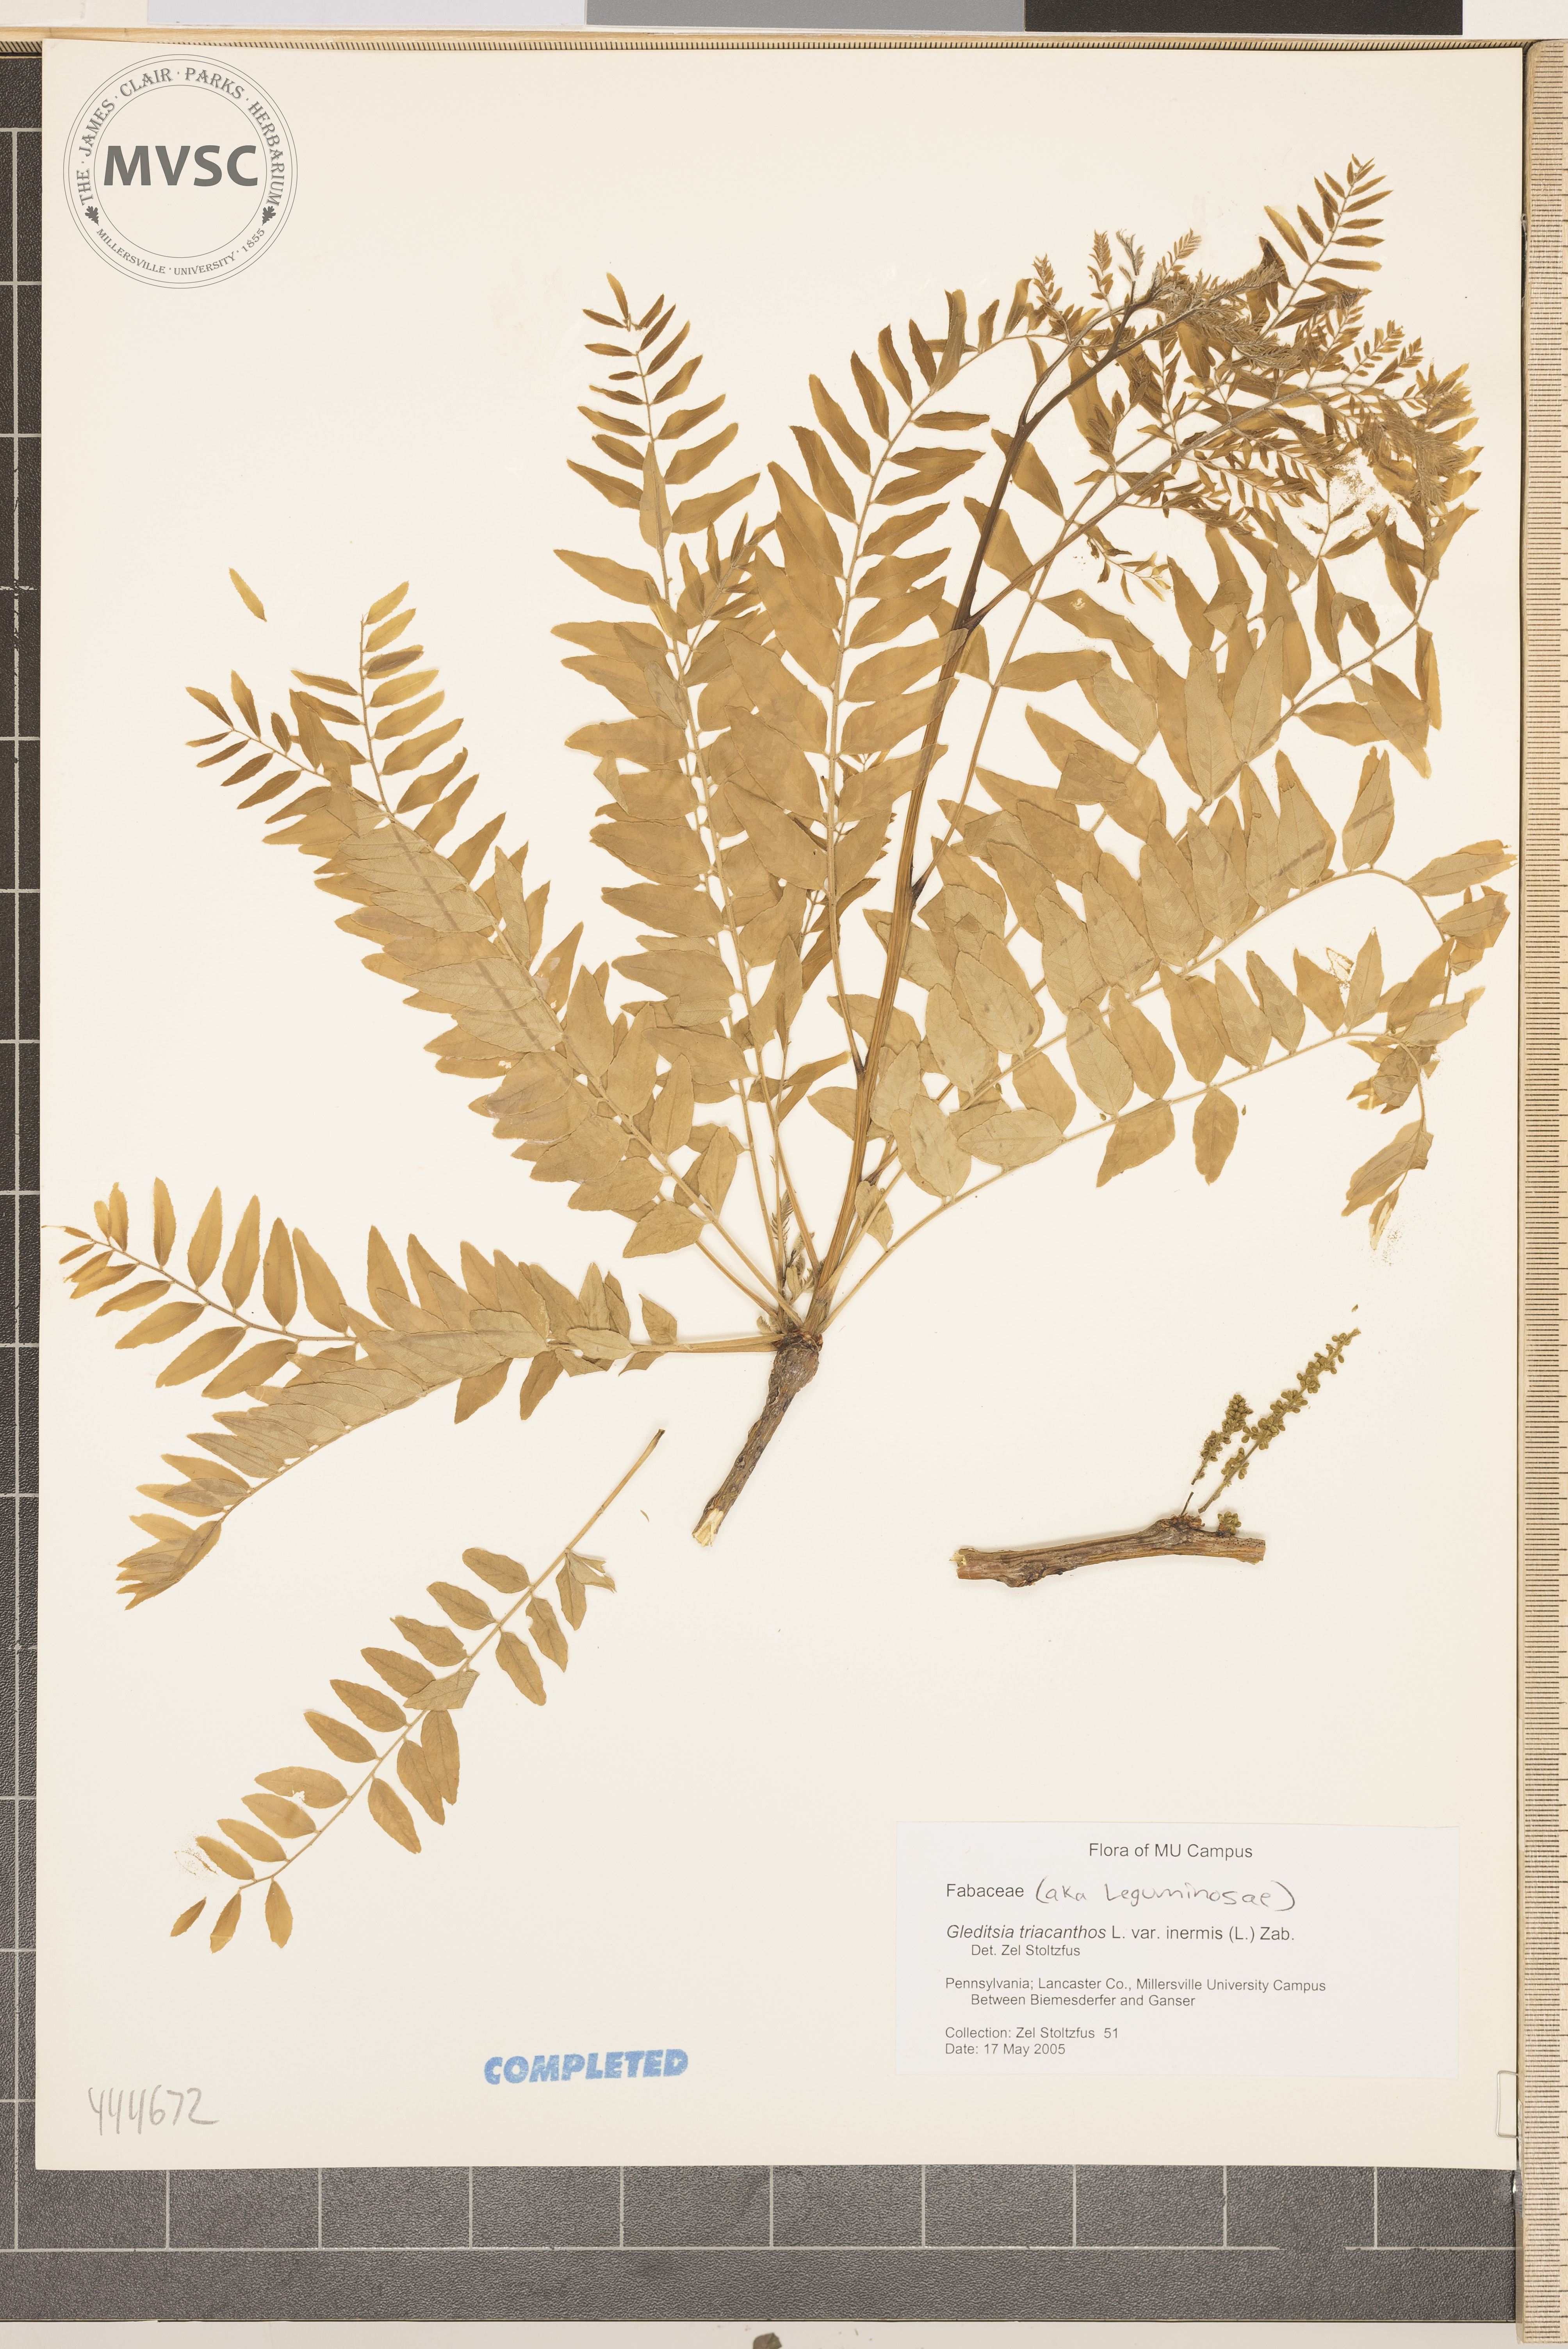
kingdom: Plantae
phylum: Tracheophyta
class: Magnoliopsida
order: Fabales
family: Fabaceae
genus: Gleditsia
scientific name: Gleditsia triacanthos
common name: Common honeylocust
